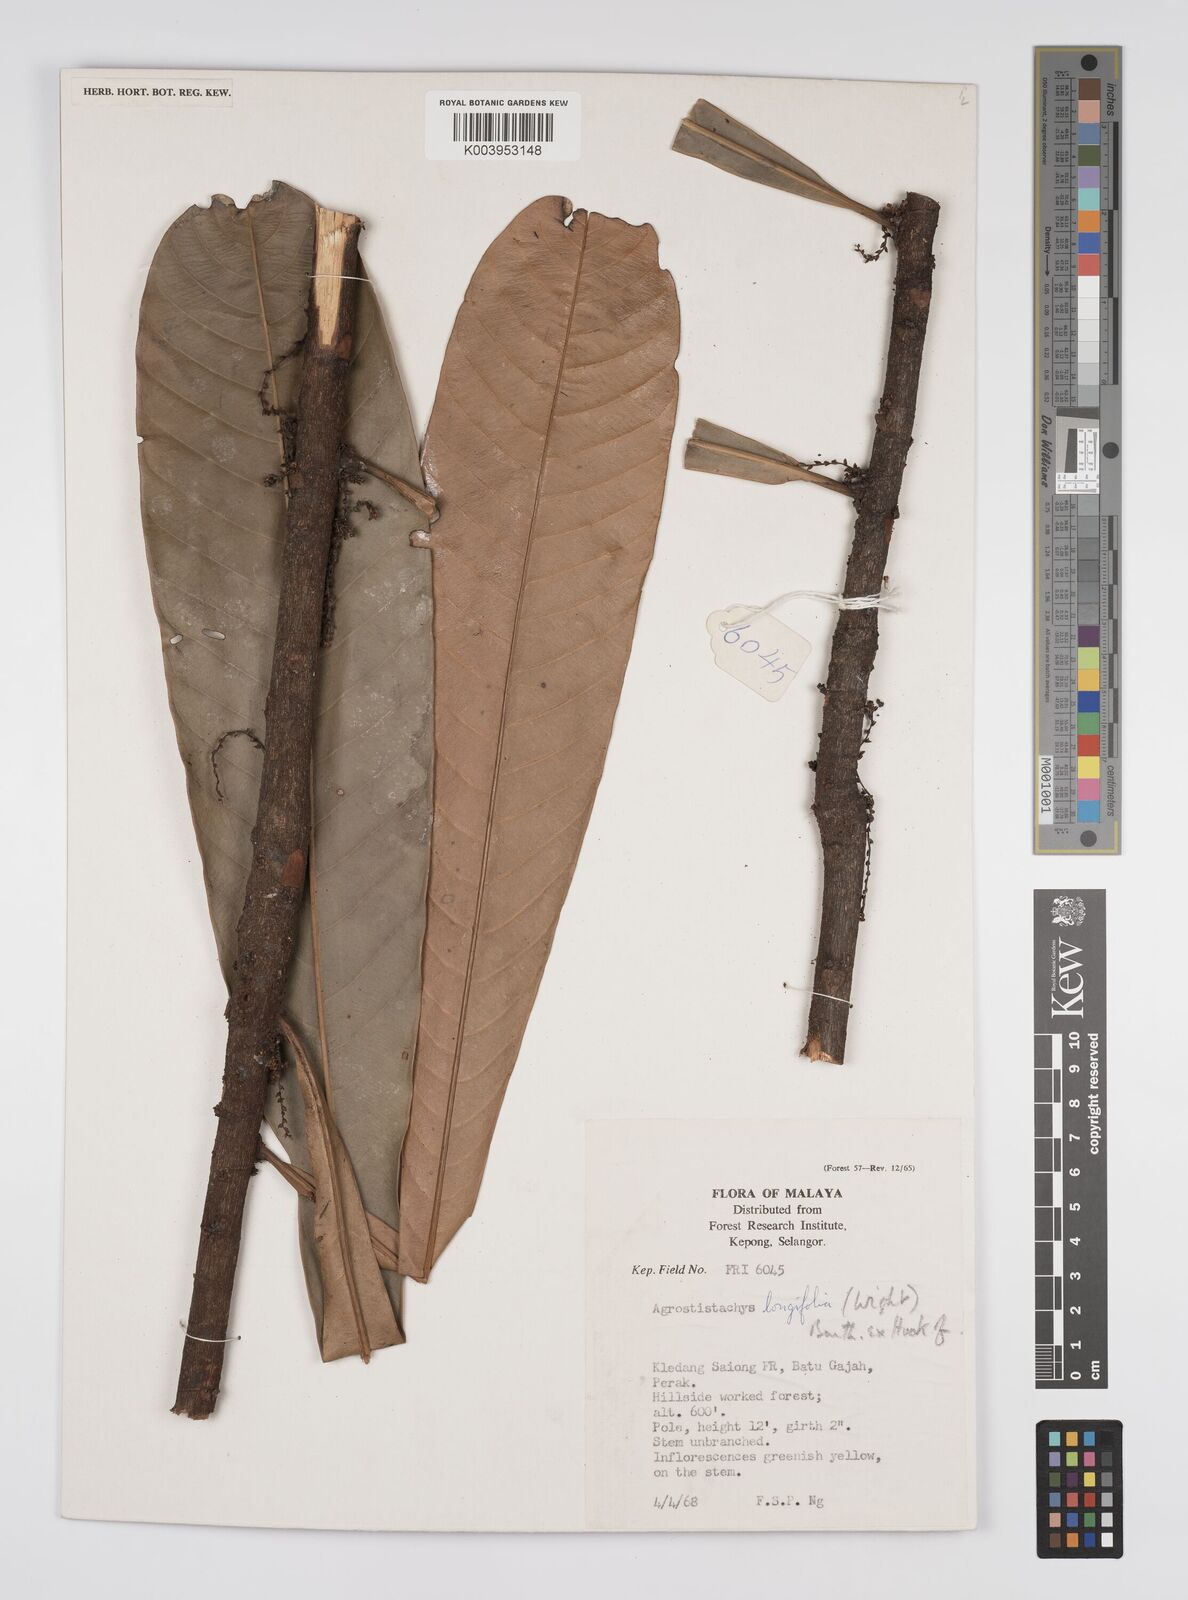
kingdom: Plantae
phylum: Tracheophyta
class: Magnoliopsida
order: Malpighiales
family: Euphorbiaceae
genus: Agrostistachys
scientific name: Agrostistachys borneensis
